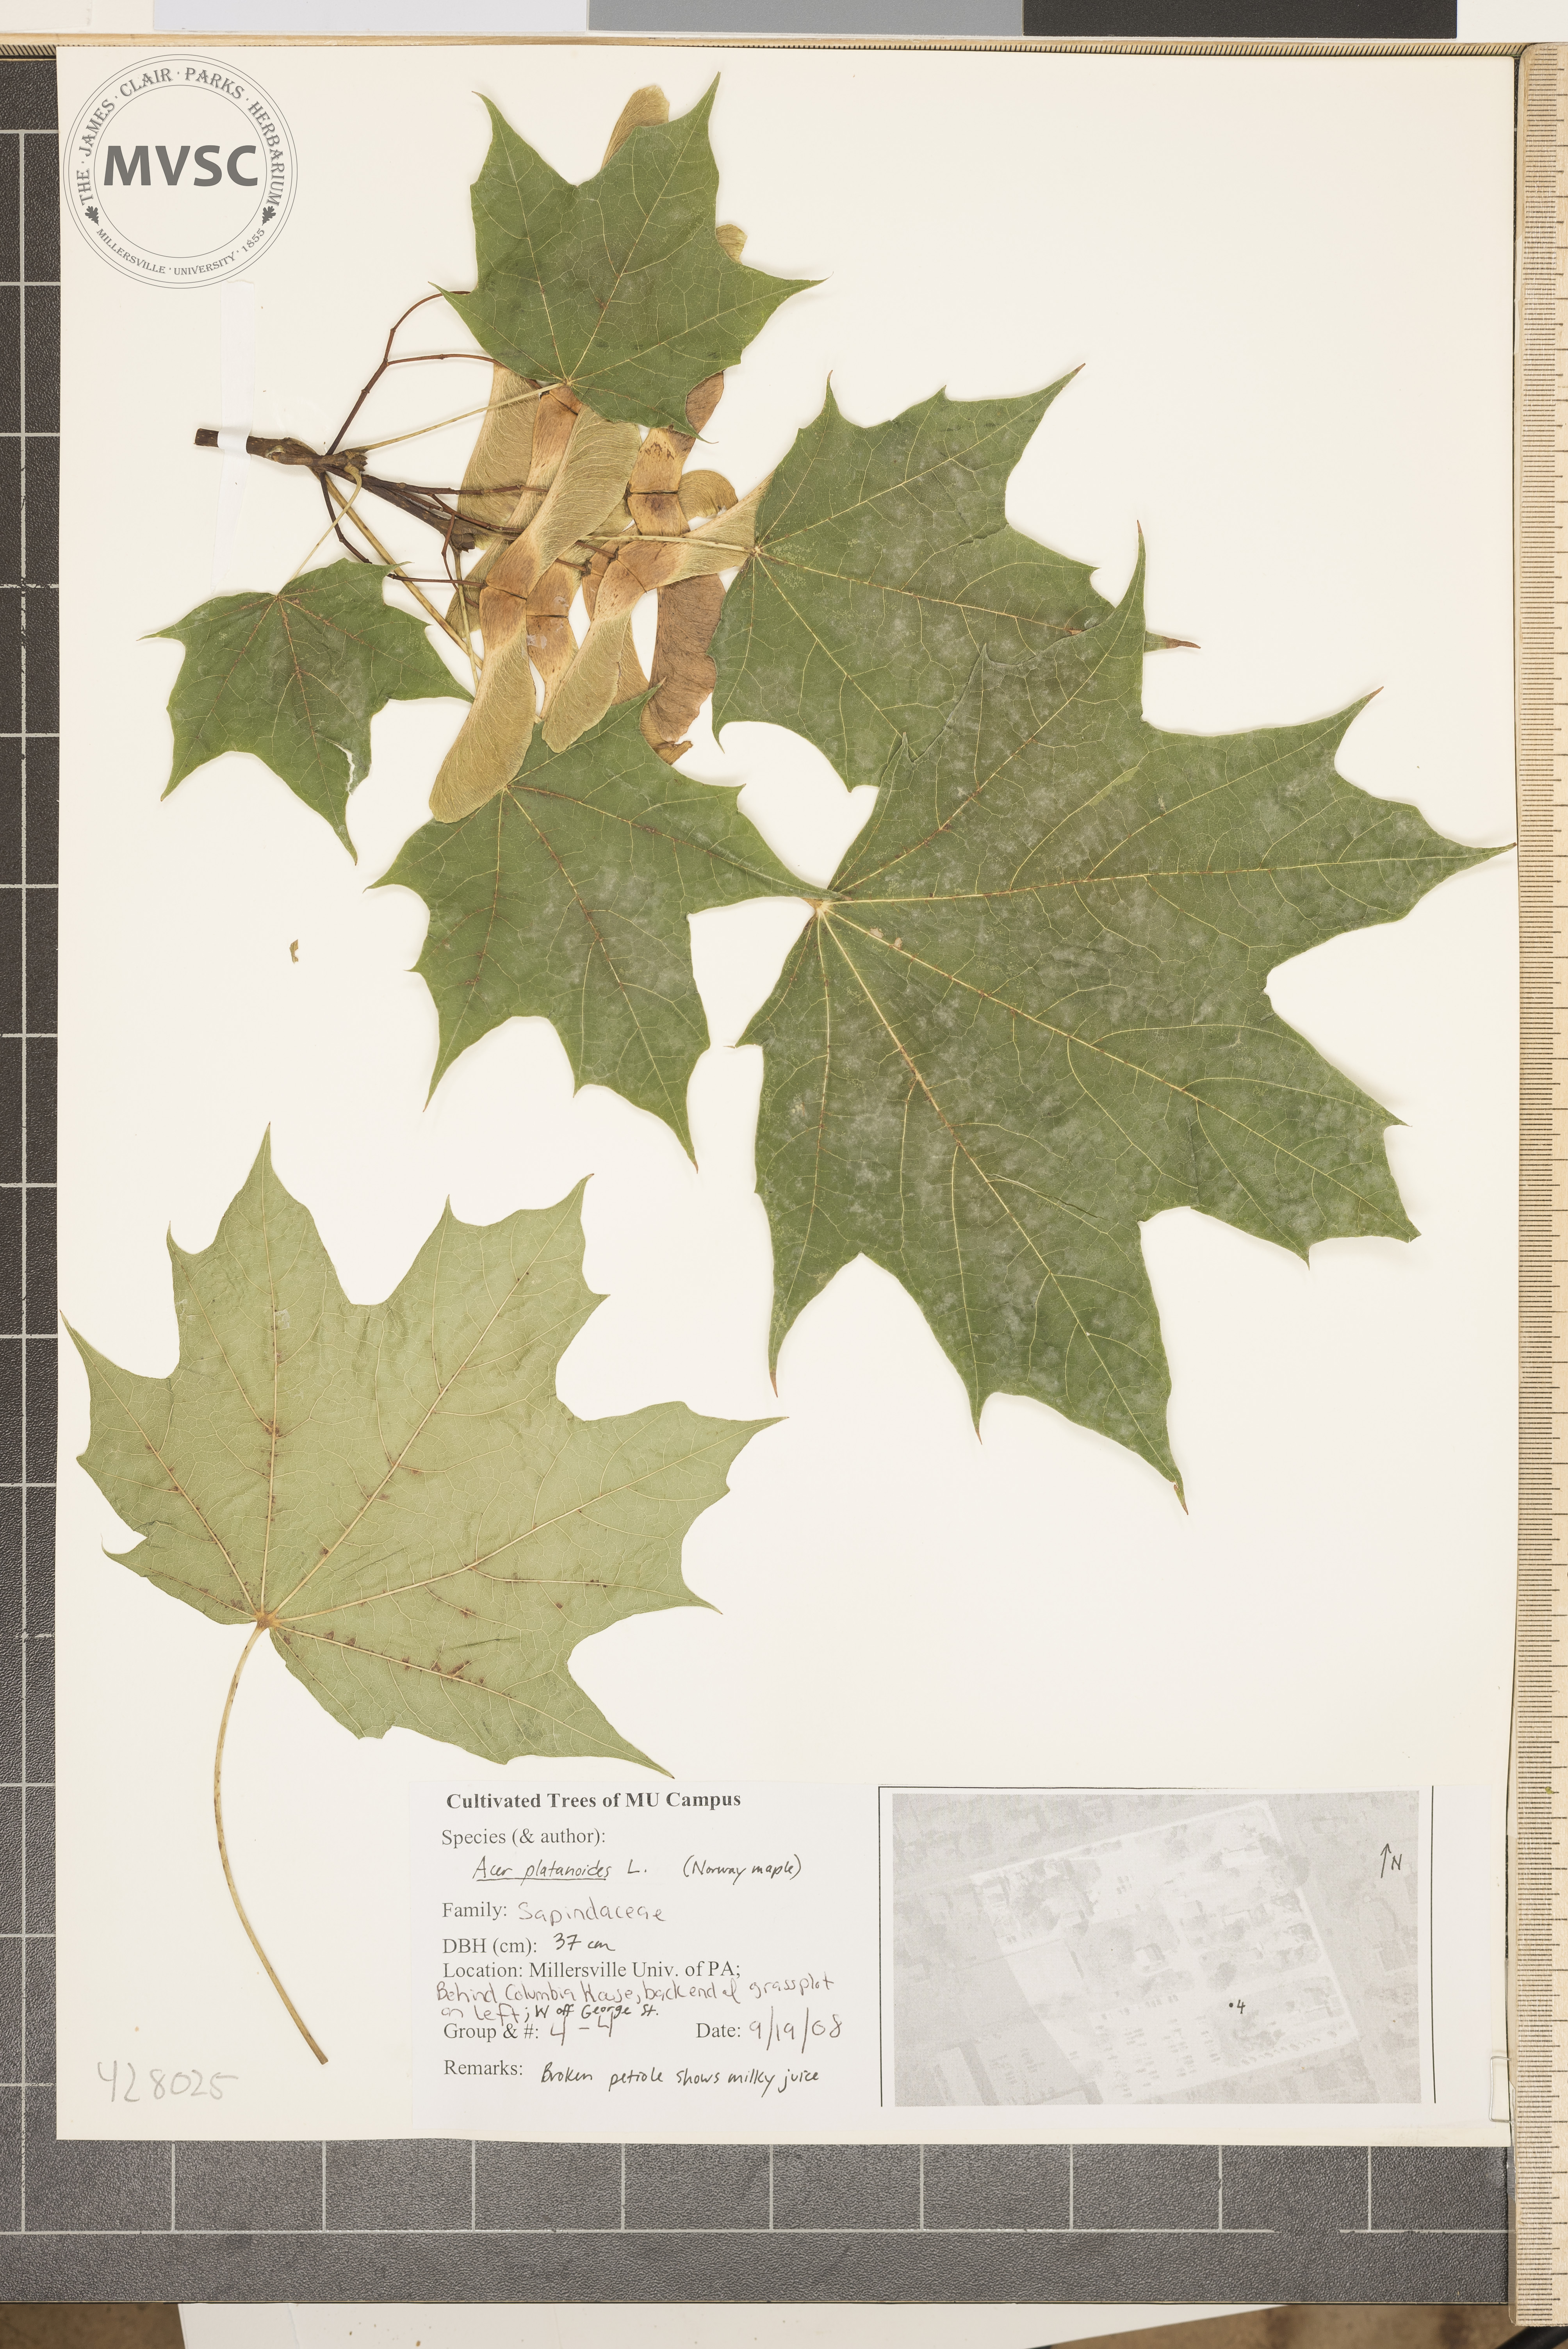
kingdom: Plantae
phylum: Tracheophyta
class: Magnoliopsida
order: Sapindales
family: Sapindaceae
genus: Acer
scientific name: Acer platanoides
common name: Norway Maple
